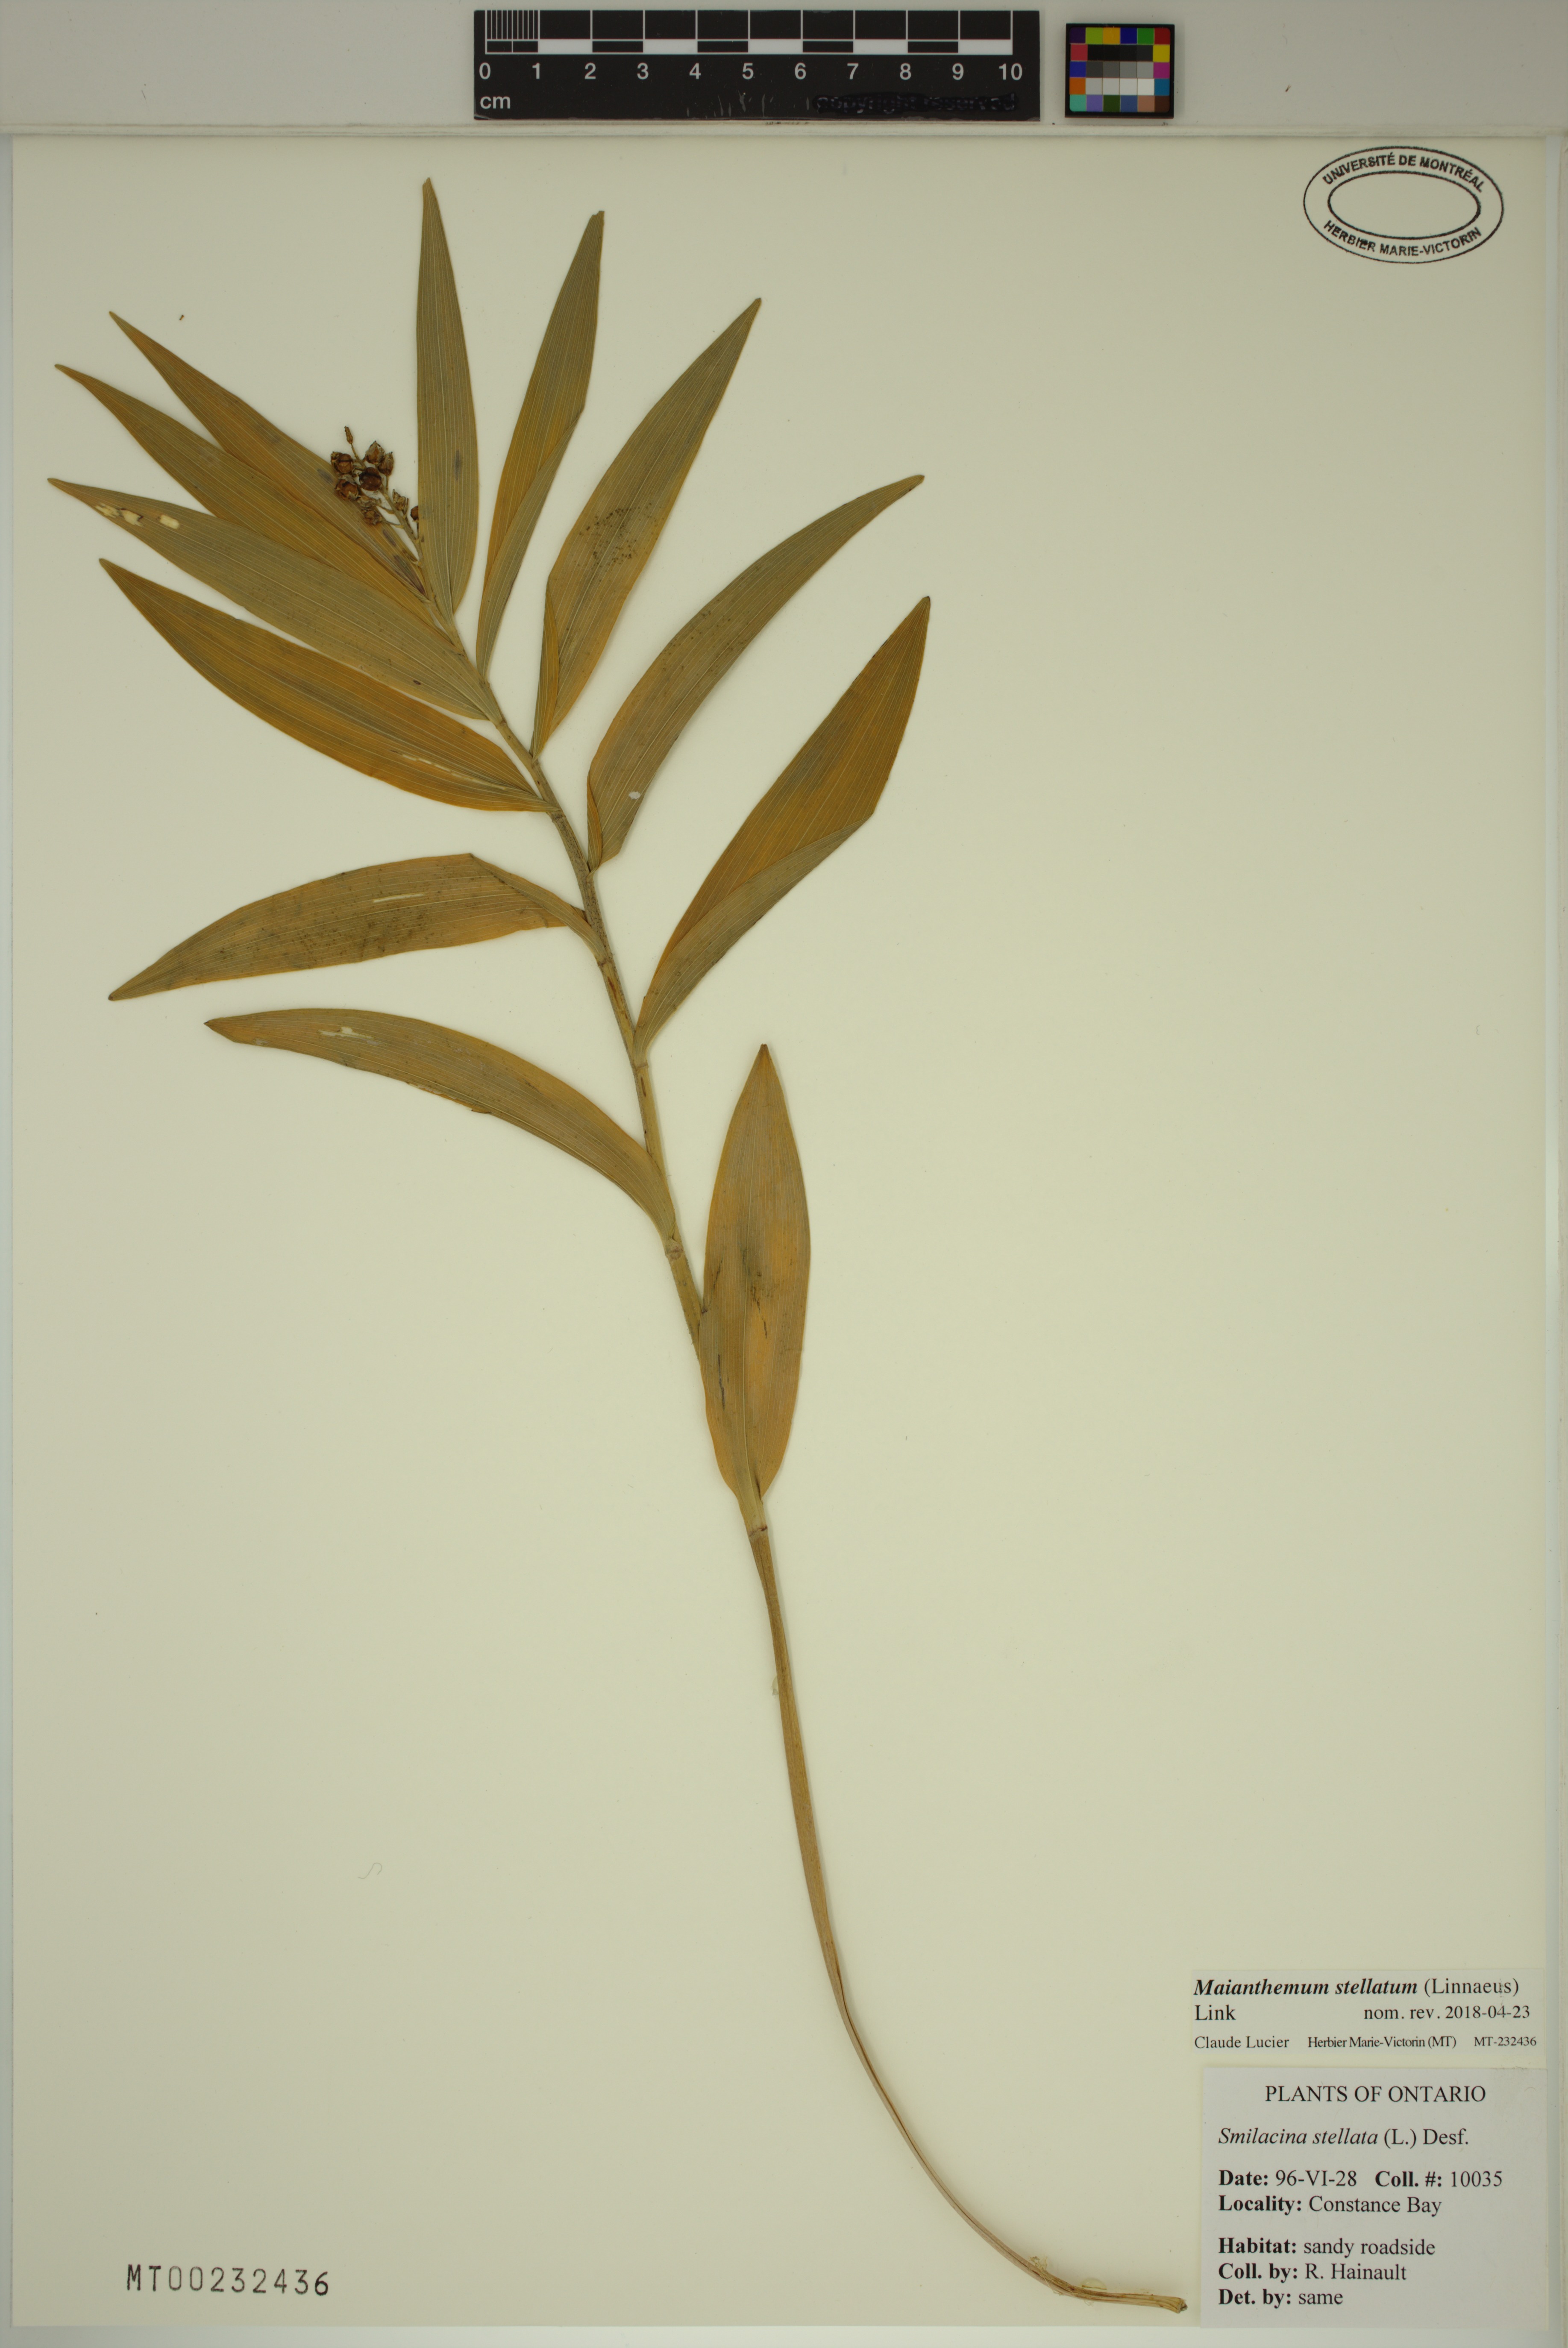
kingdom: Plantae
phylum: Tracheophyta
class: Liliopsida
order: Asparagales
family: Asparagaceae
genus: Maianthemum
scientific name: Maianthemum stellatum
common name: Little false solomon's seal
